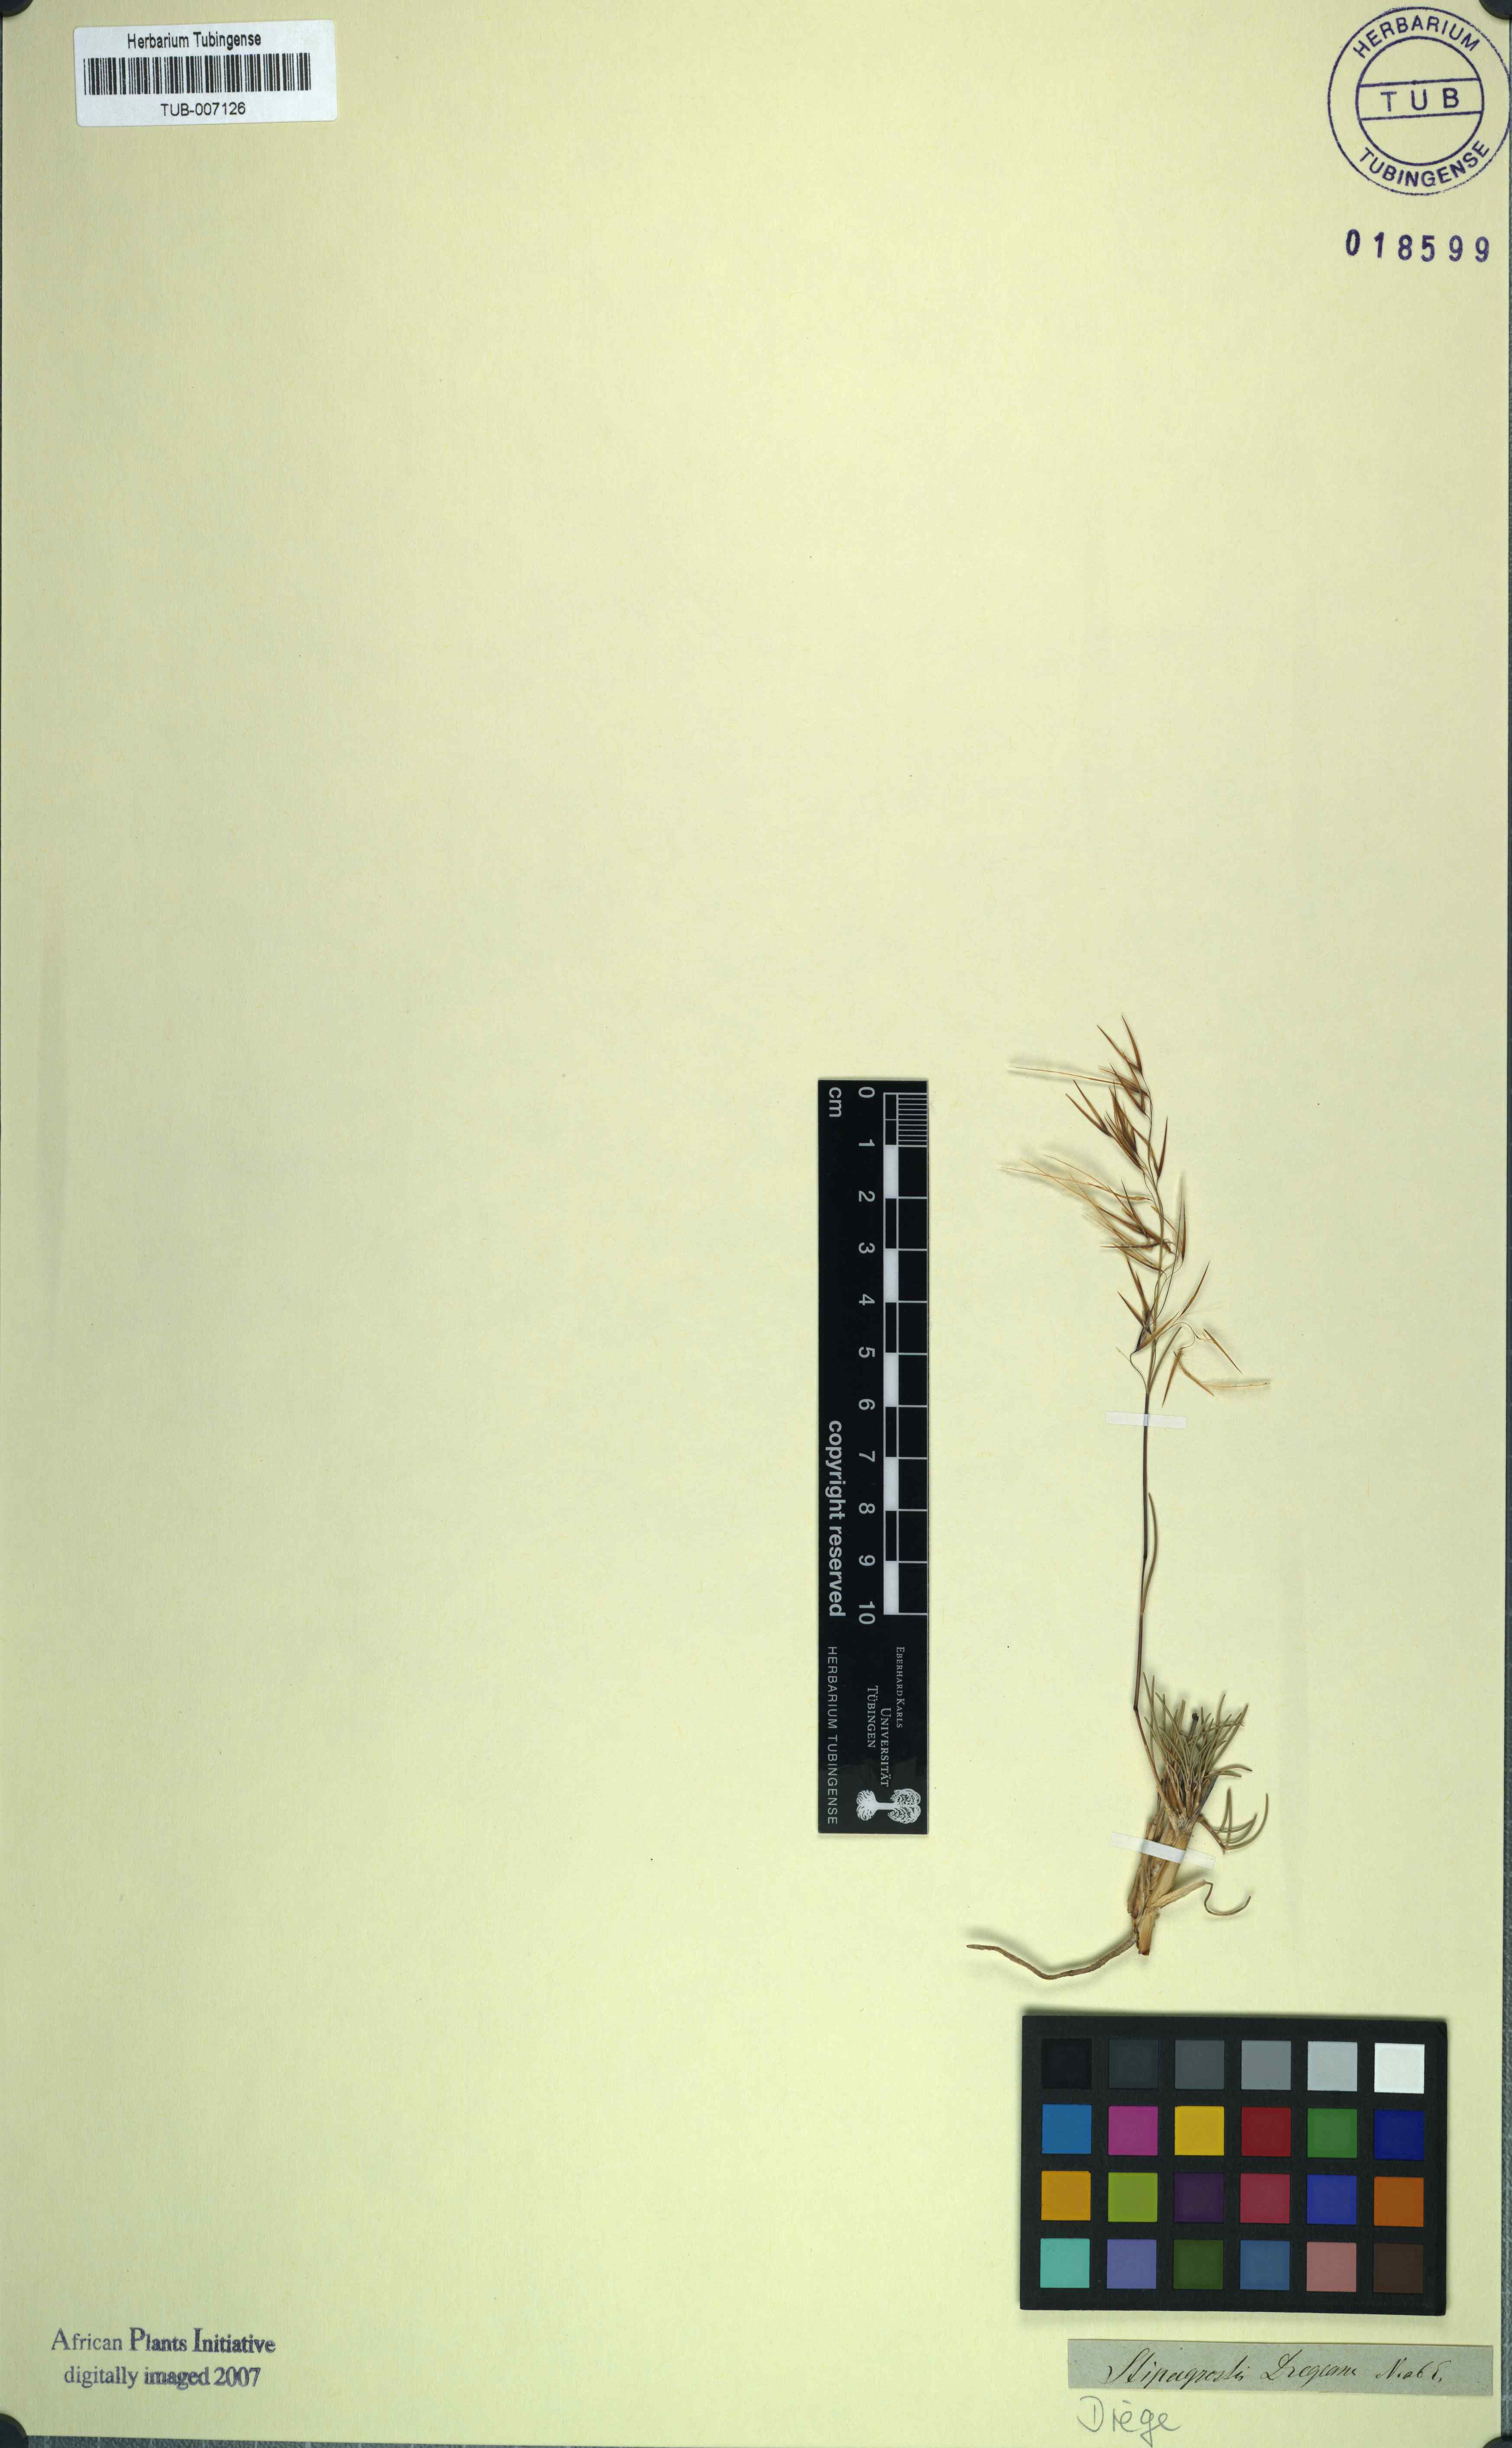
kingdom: Plantae
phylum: Tracheophyta
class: Liliopsida
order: Poales
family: Poaceae
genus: Stipagrostis
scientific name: Stipagrostis dregeana
